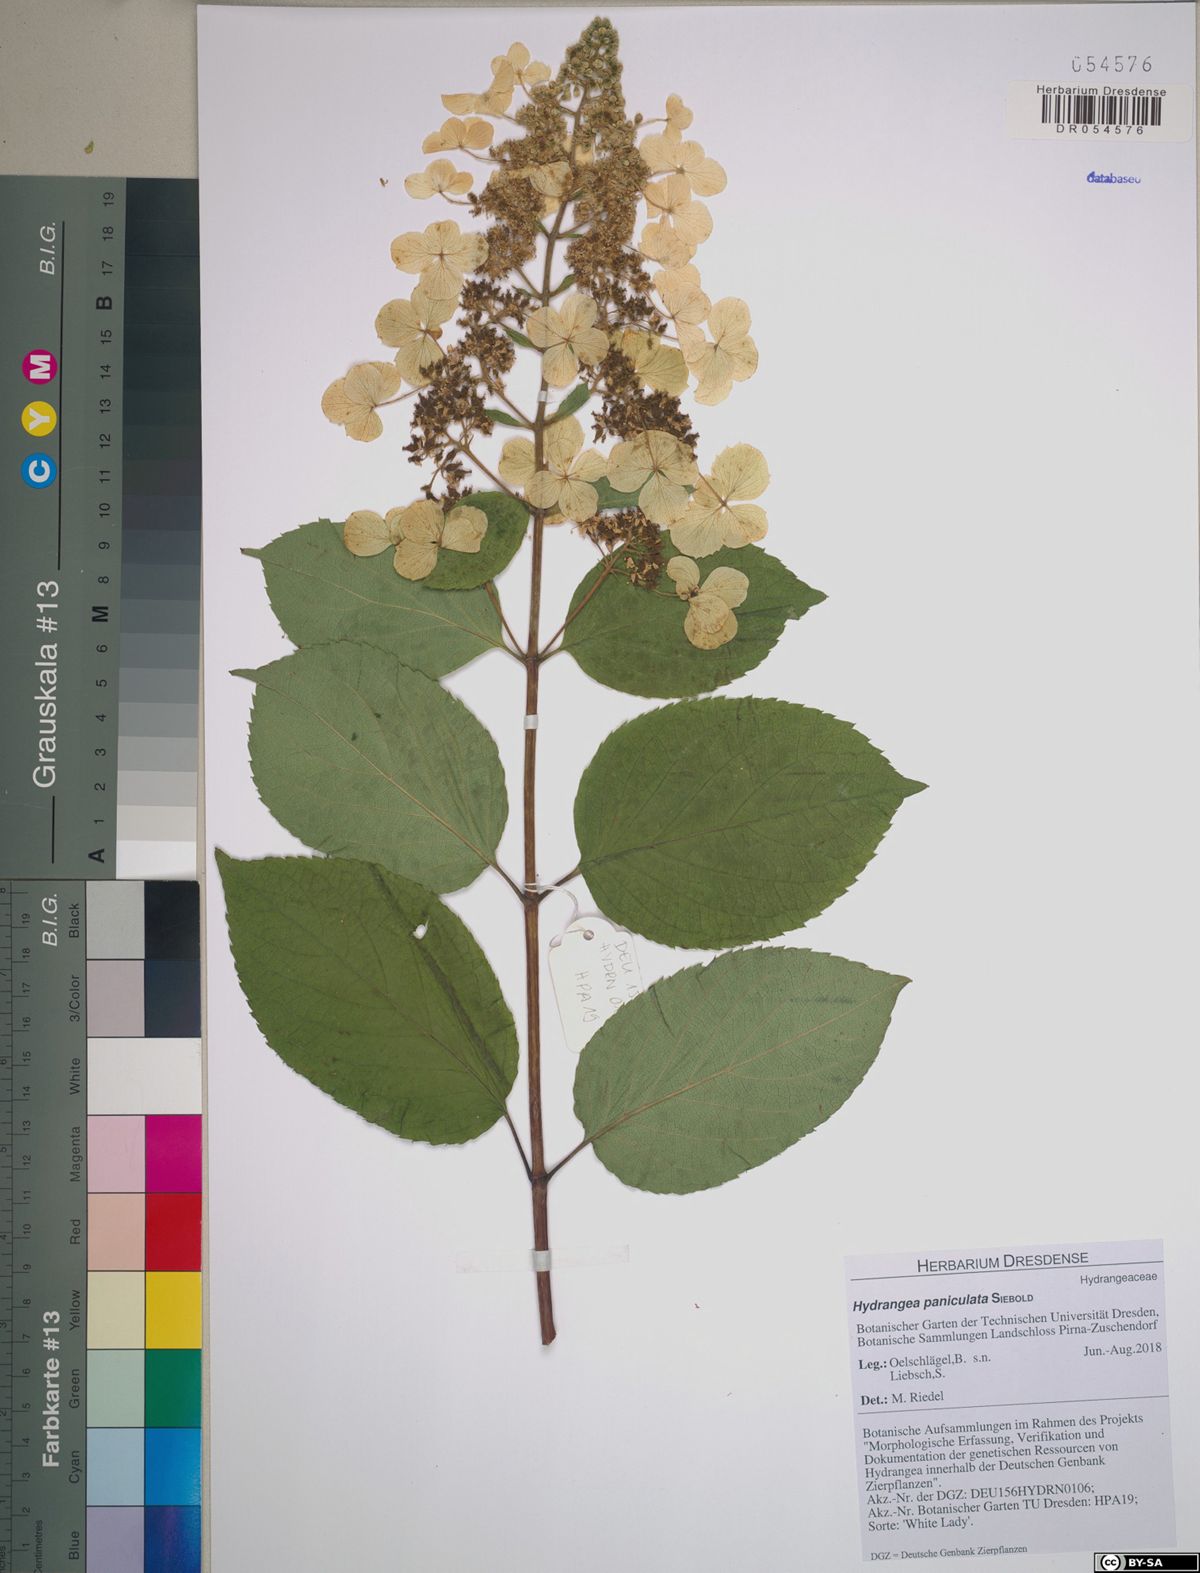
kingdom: Plantae
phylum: Tracheophyta
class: Magnoliopsida
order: Cornales
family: Hydrangeaceae
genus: Hydrangea
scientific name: Hydrangea paniculata
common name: Panicled hydrangea
